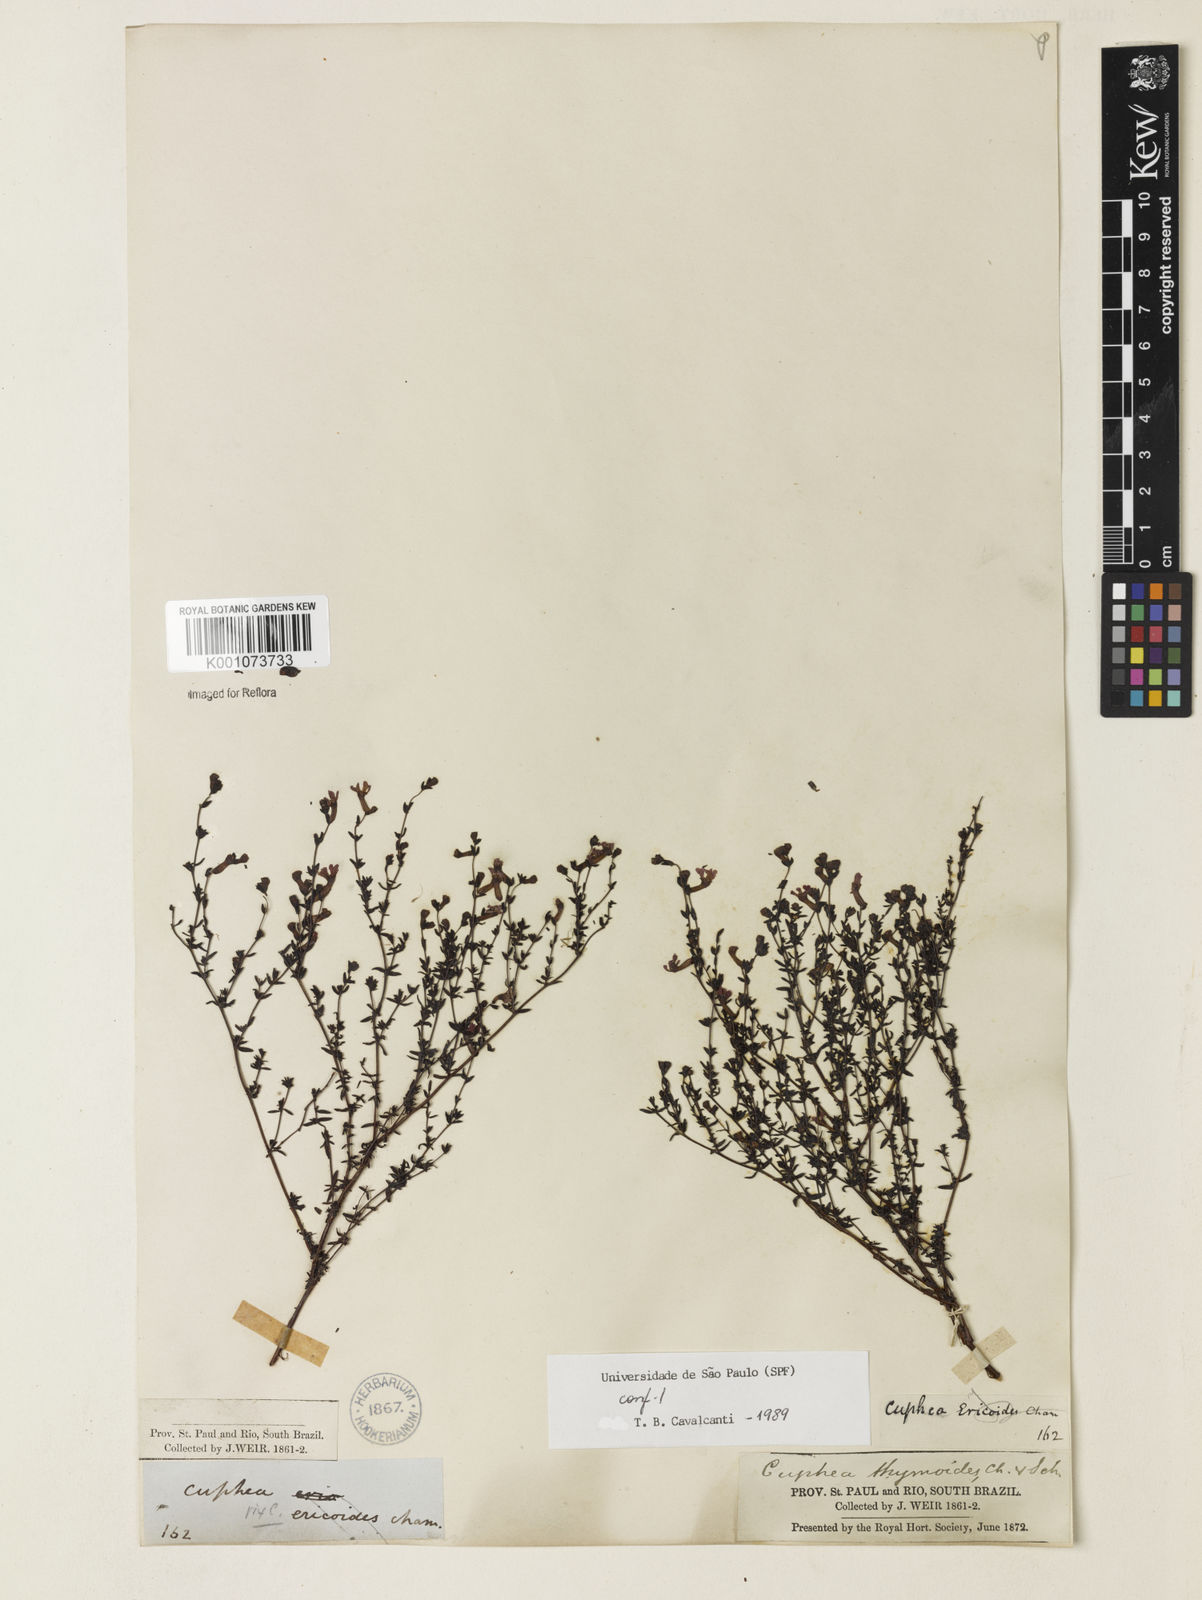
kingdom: Plantae
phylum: Tracheophyta
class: Magnoliopsida
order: Myrtales
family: Lythraceae
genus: Cuphea
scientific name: Cuphea thymoides
